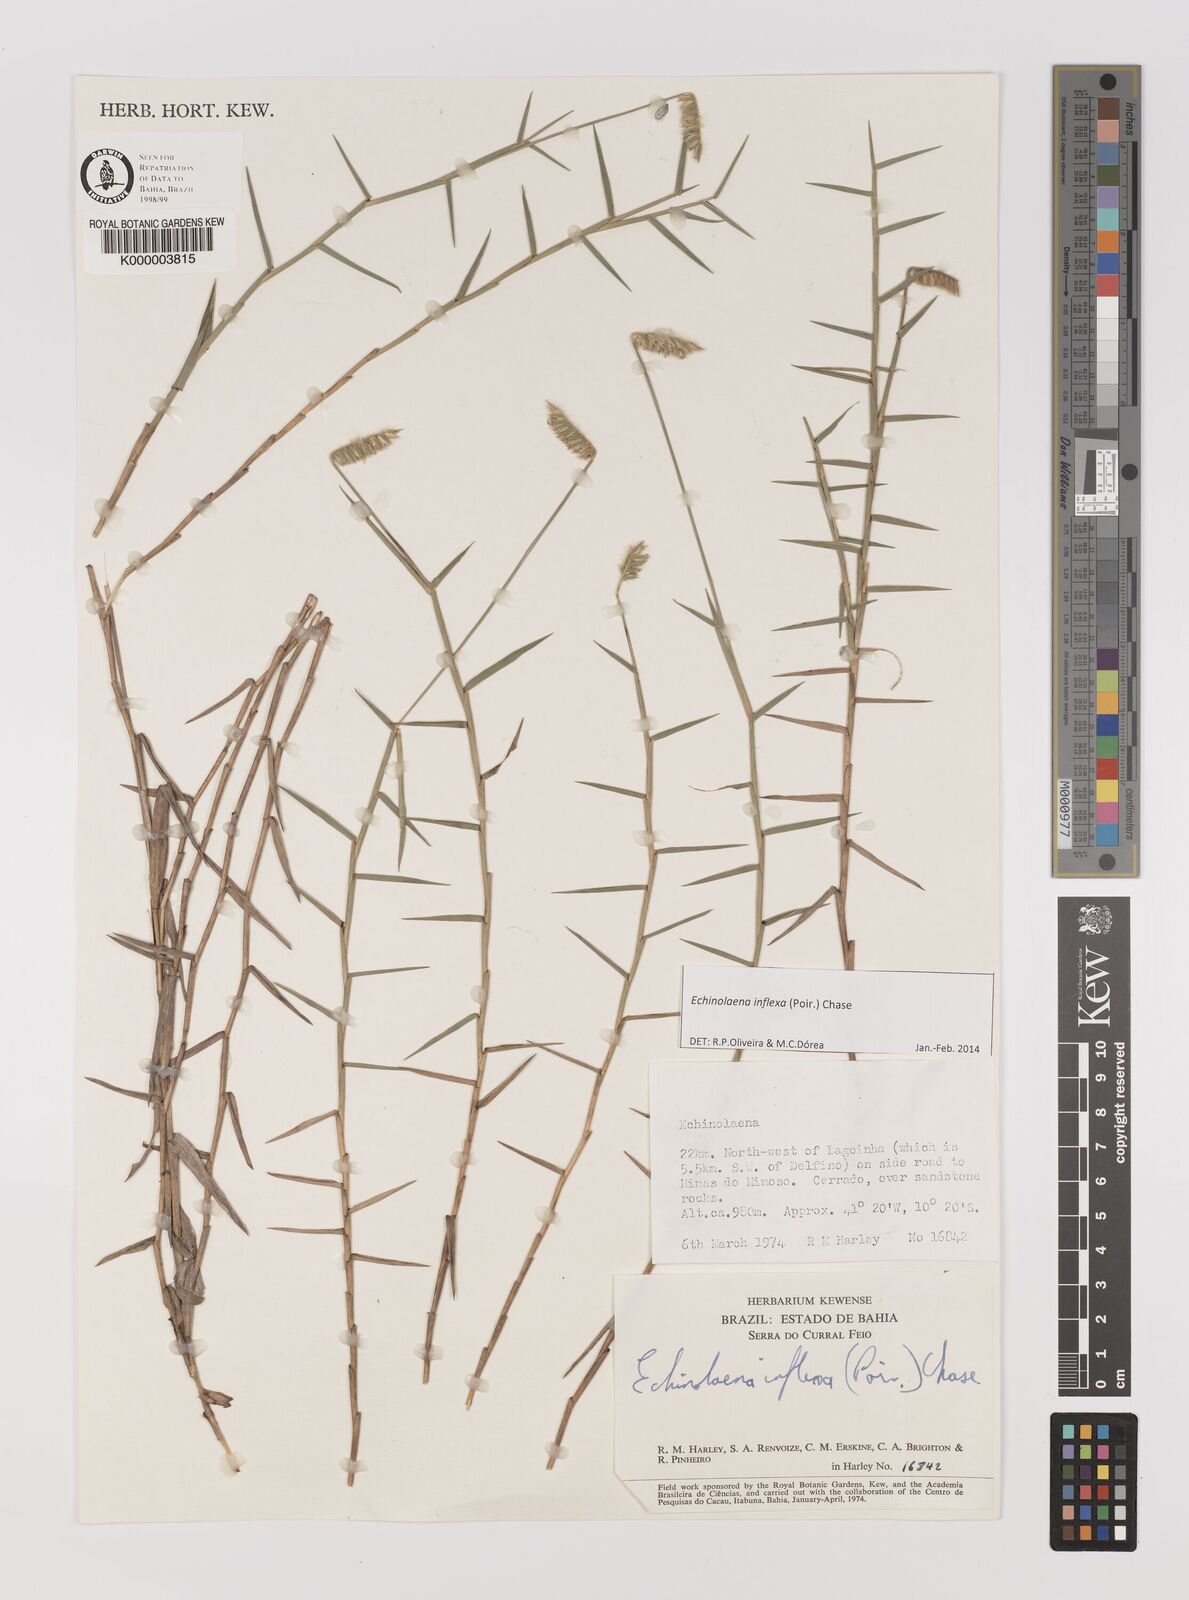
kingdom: Plantae
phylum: Tracheophyta
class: Liliopsida
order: Poales
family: Poaceae
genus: Echinolaena
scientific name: Echinolaena inflexa
